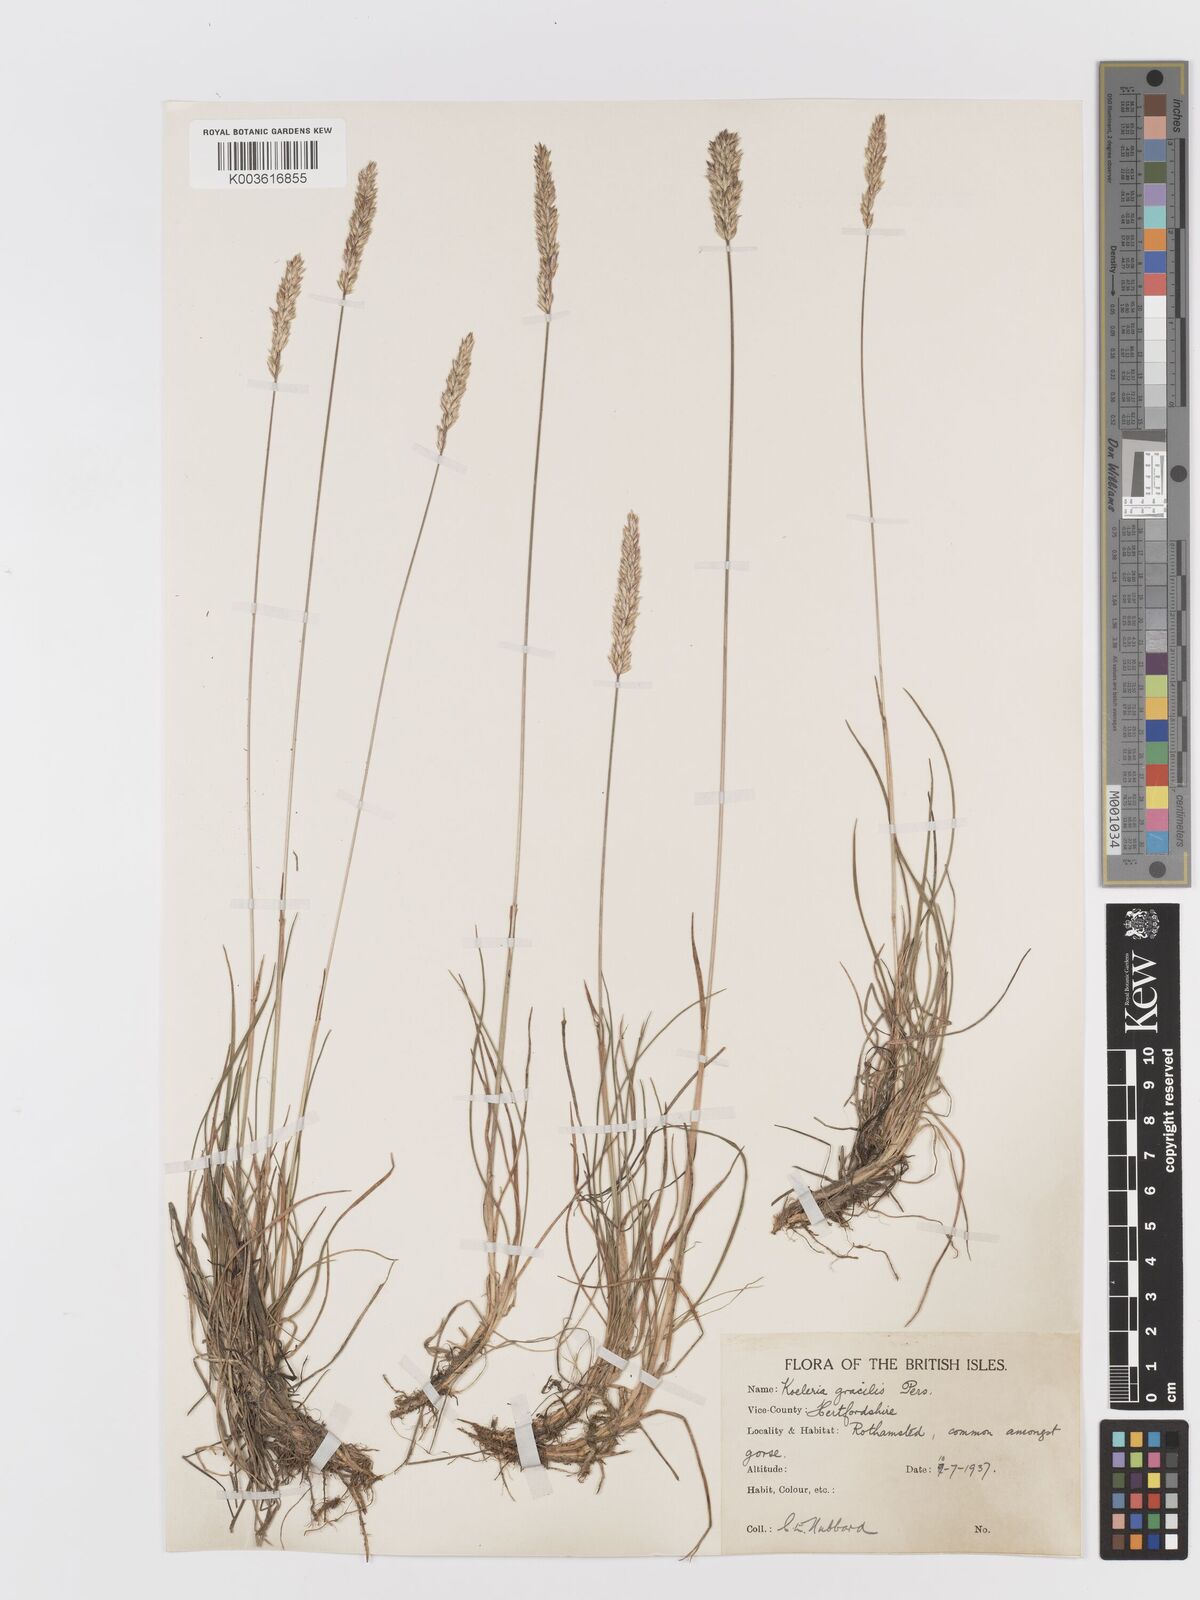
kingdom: Plantae
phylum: Tracheophyta
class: Liliopsida
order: Poales
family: Poaceae
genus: Koeleria
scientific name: Koeleria macrantha
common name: Crested hair-grass
